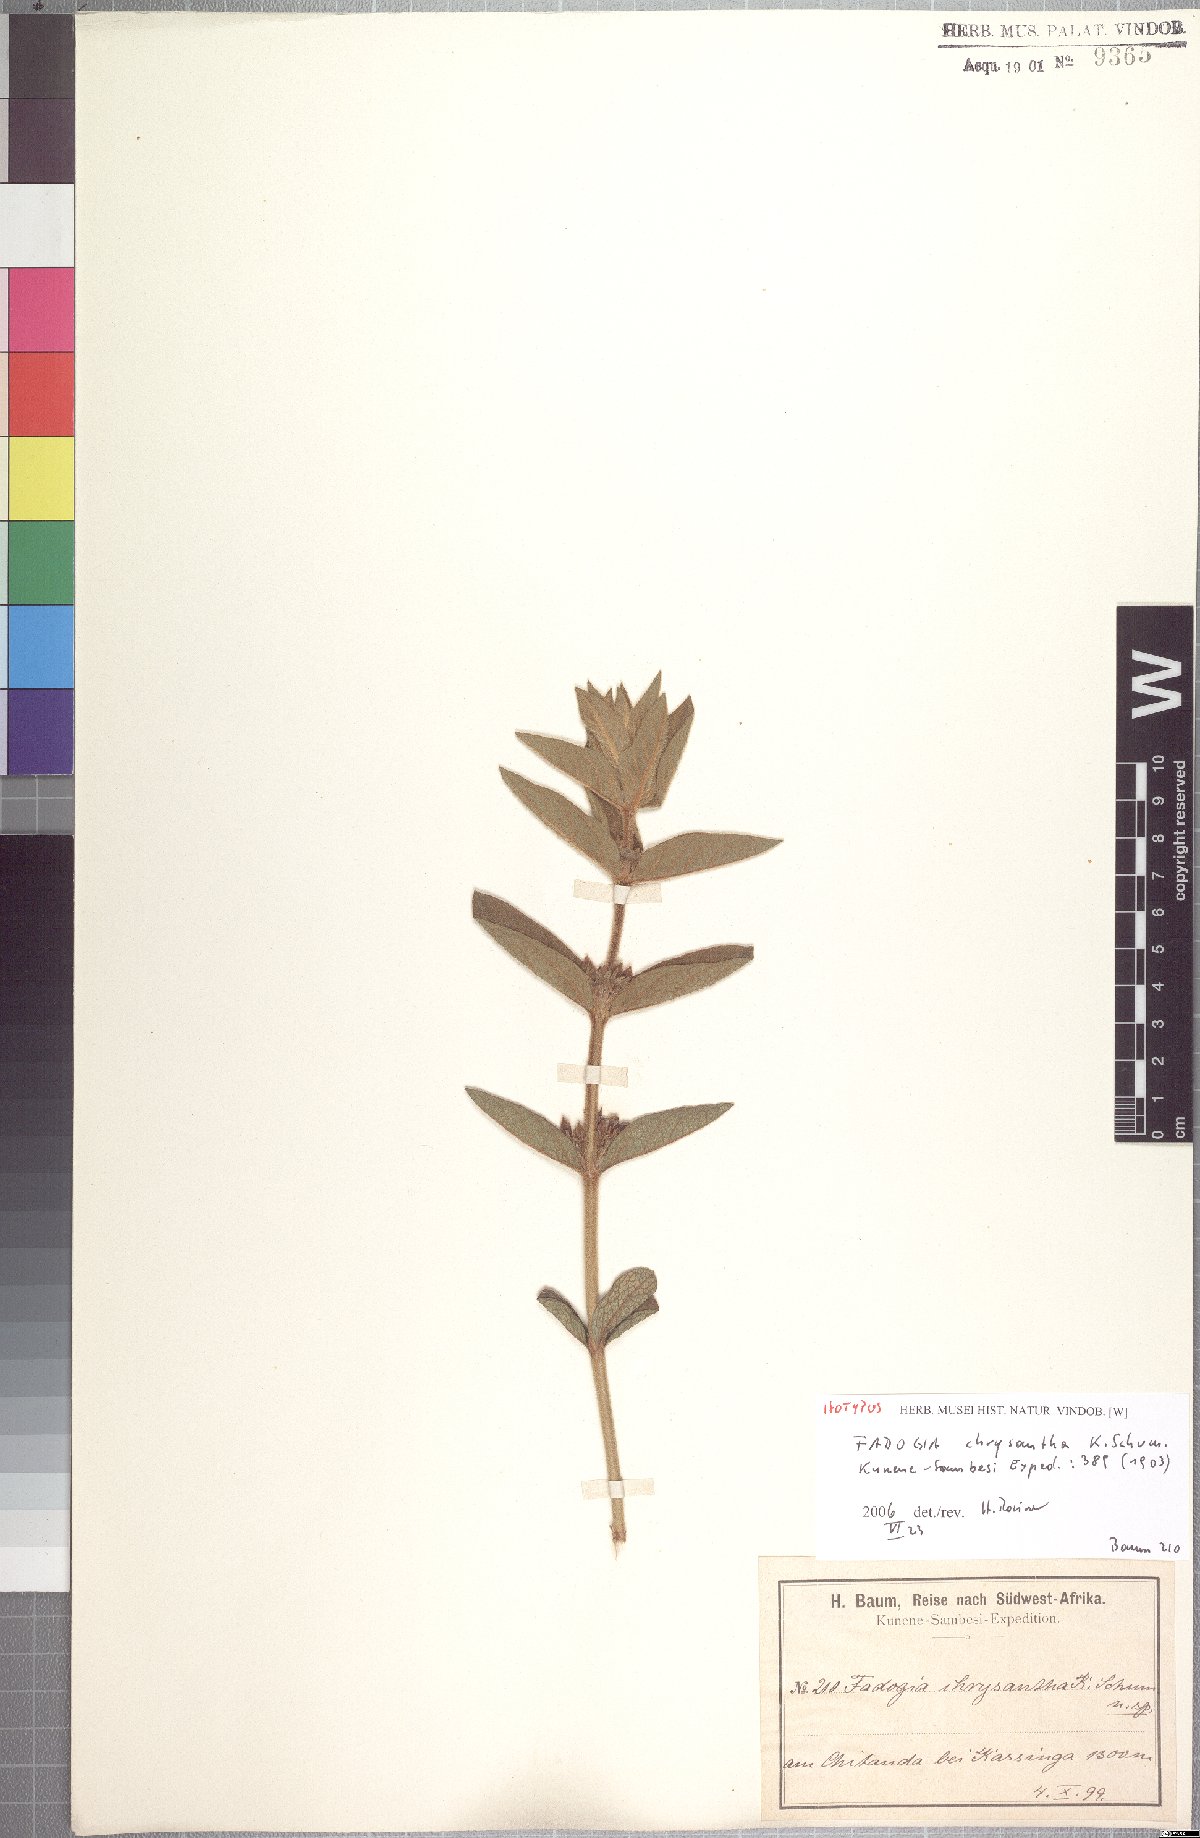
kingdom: Plantae
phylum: Tracheophyta
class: Magnoliopsida
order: Gentianales
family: Rubiaceae
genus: Fadogia
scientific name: Fadogia chrysantha
